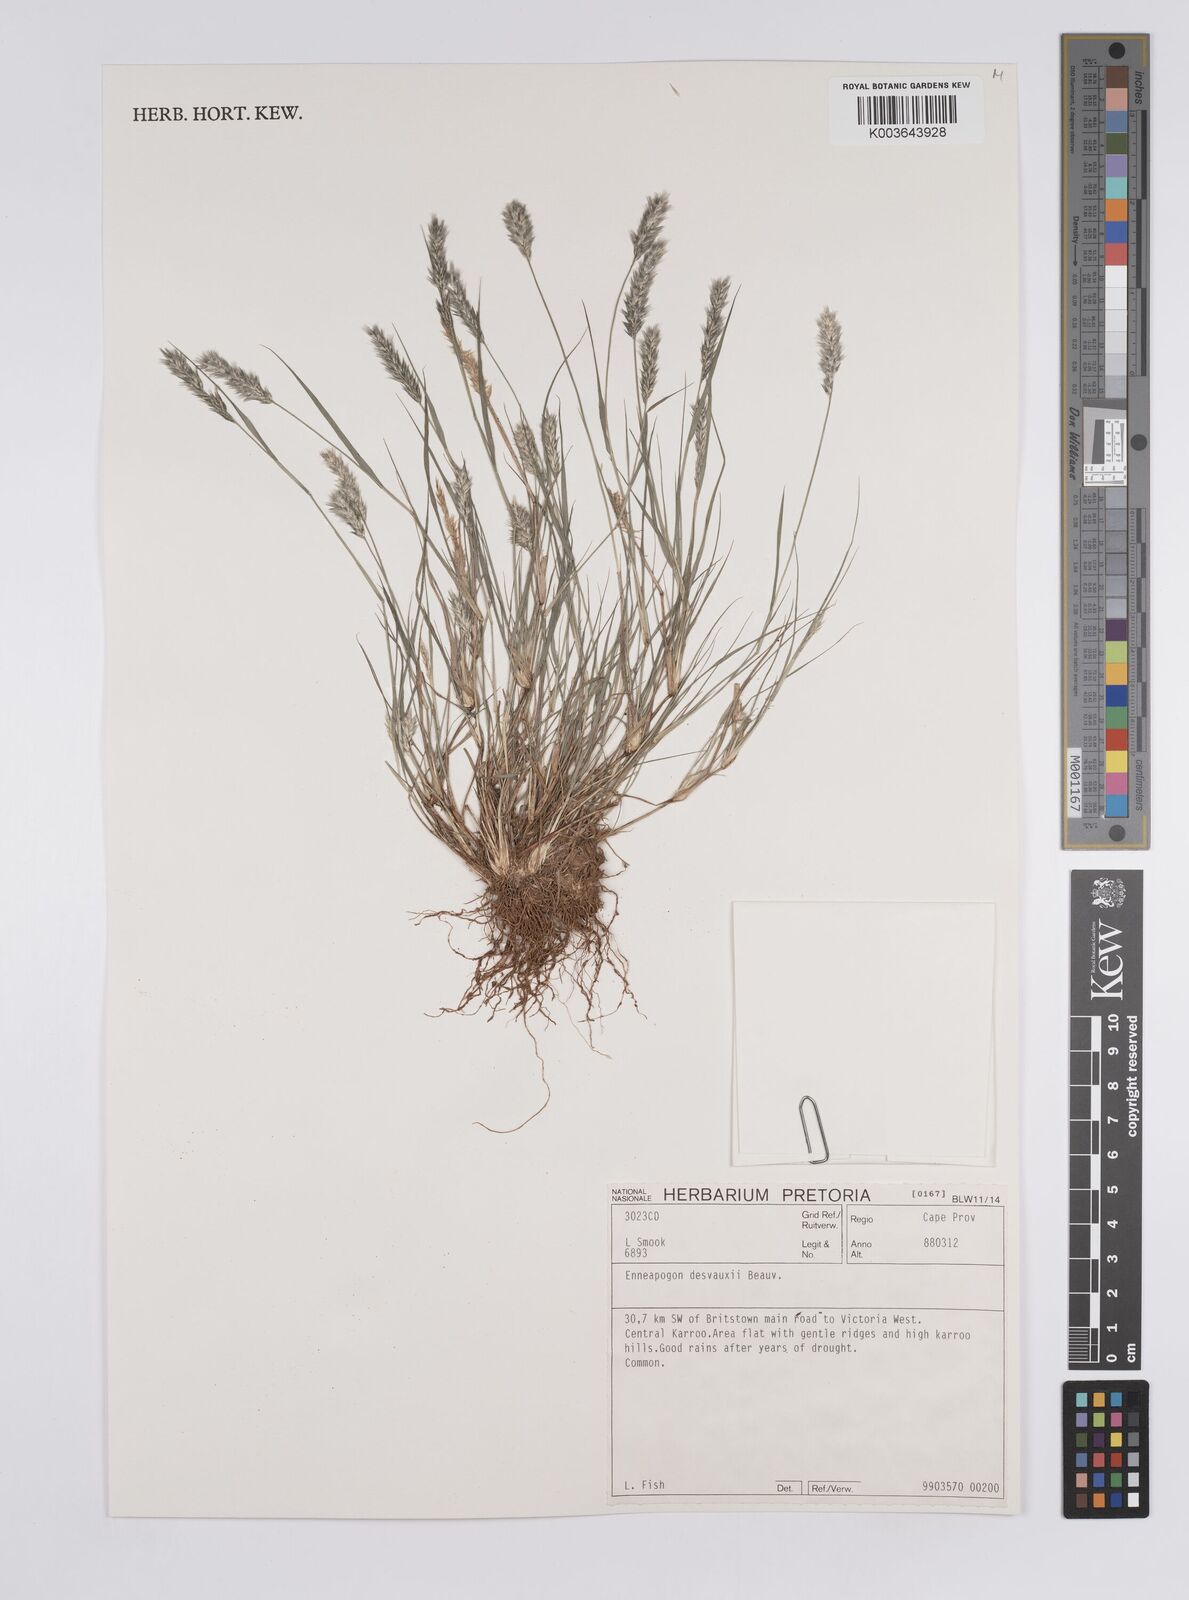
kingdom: Plantae
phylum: Tracheophyta
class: Liliopsida
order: Poales
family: Poaceae
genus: Enneapogon
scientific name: Enneapogon desvauxii
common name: Feather pappus grass
